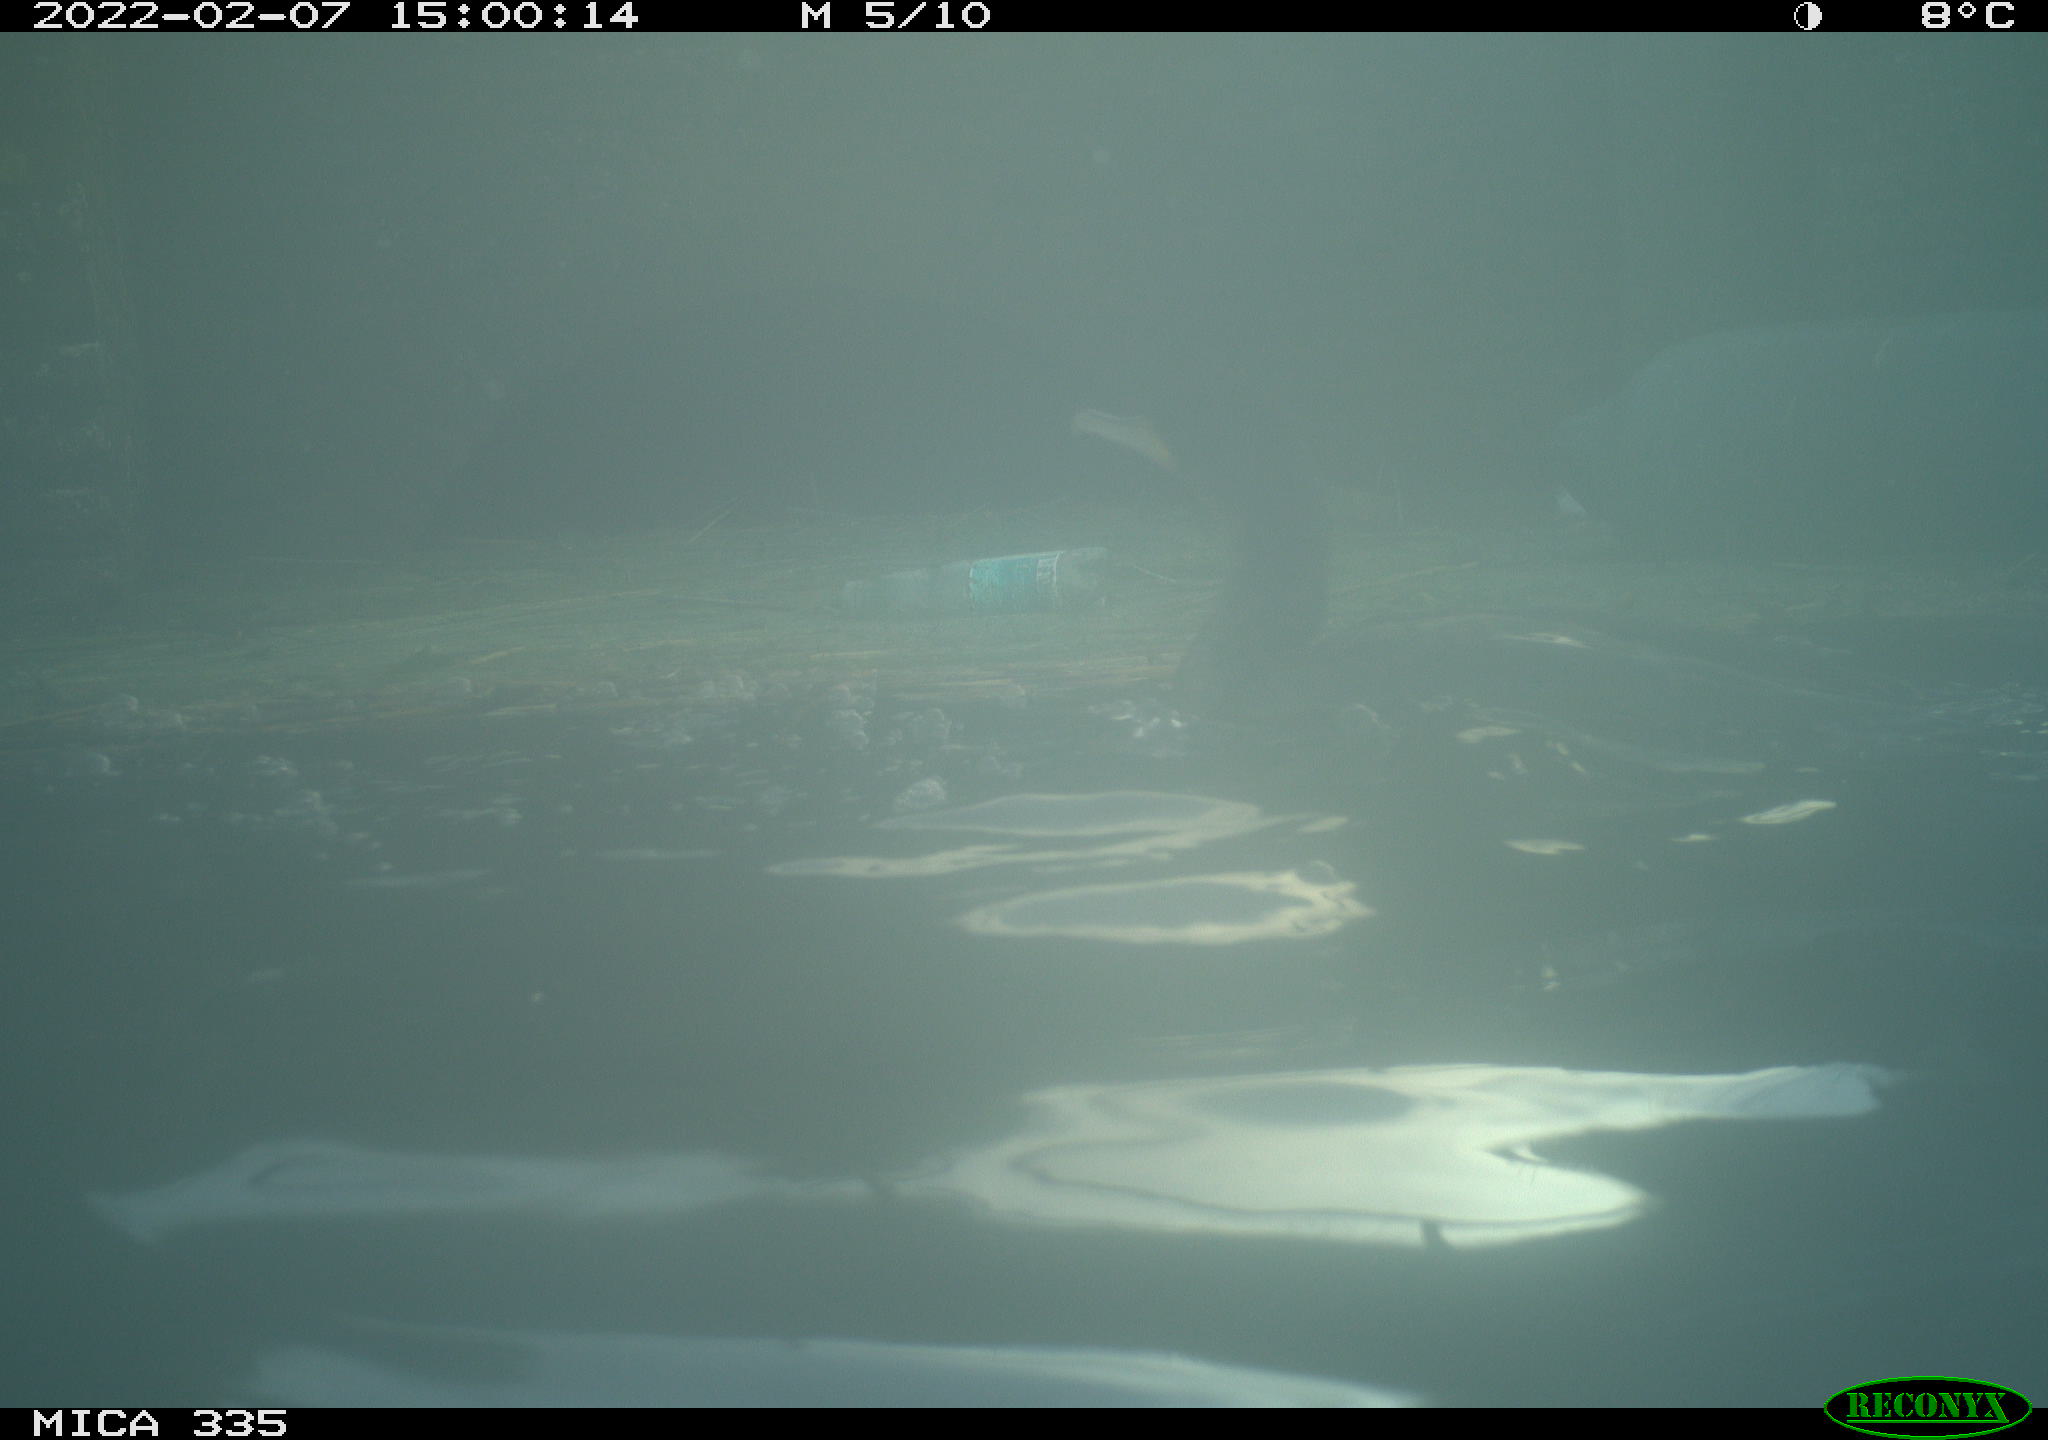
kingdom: Animalia
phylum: Chordata
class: Aves
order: Suliformes
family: Phalacrocoracidae
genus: Phalacrocorax
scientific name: Phalacrocorax carbo
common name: Great cormorant
